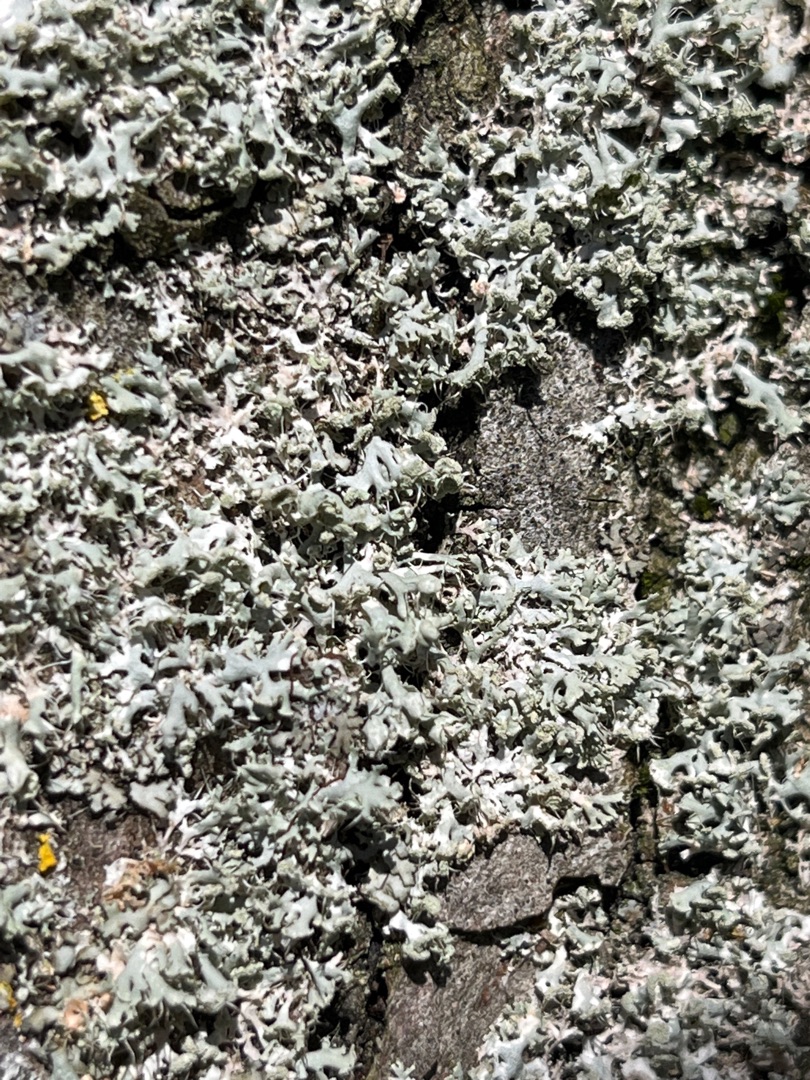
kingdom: Fungi
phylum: Ascomycota
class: Lecanoromycetes
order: Caliciales
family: Physciaceae
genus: Physcia
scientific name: Physcia tenella
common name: Spæd rosetlav
